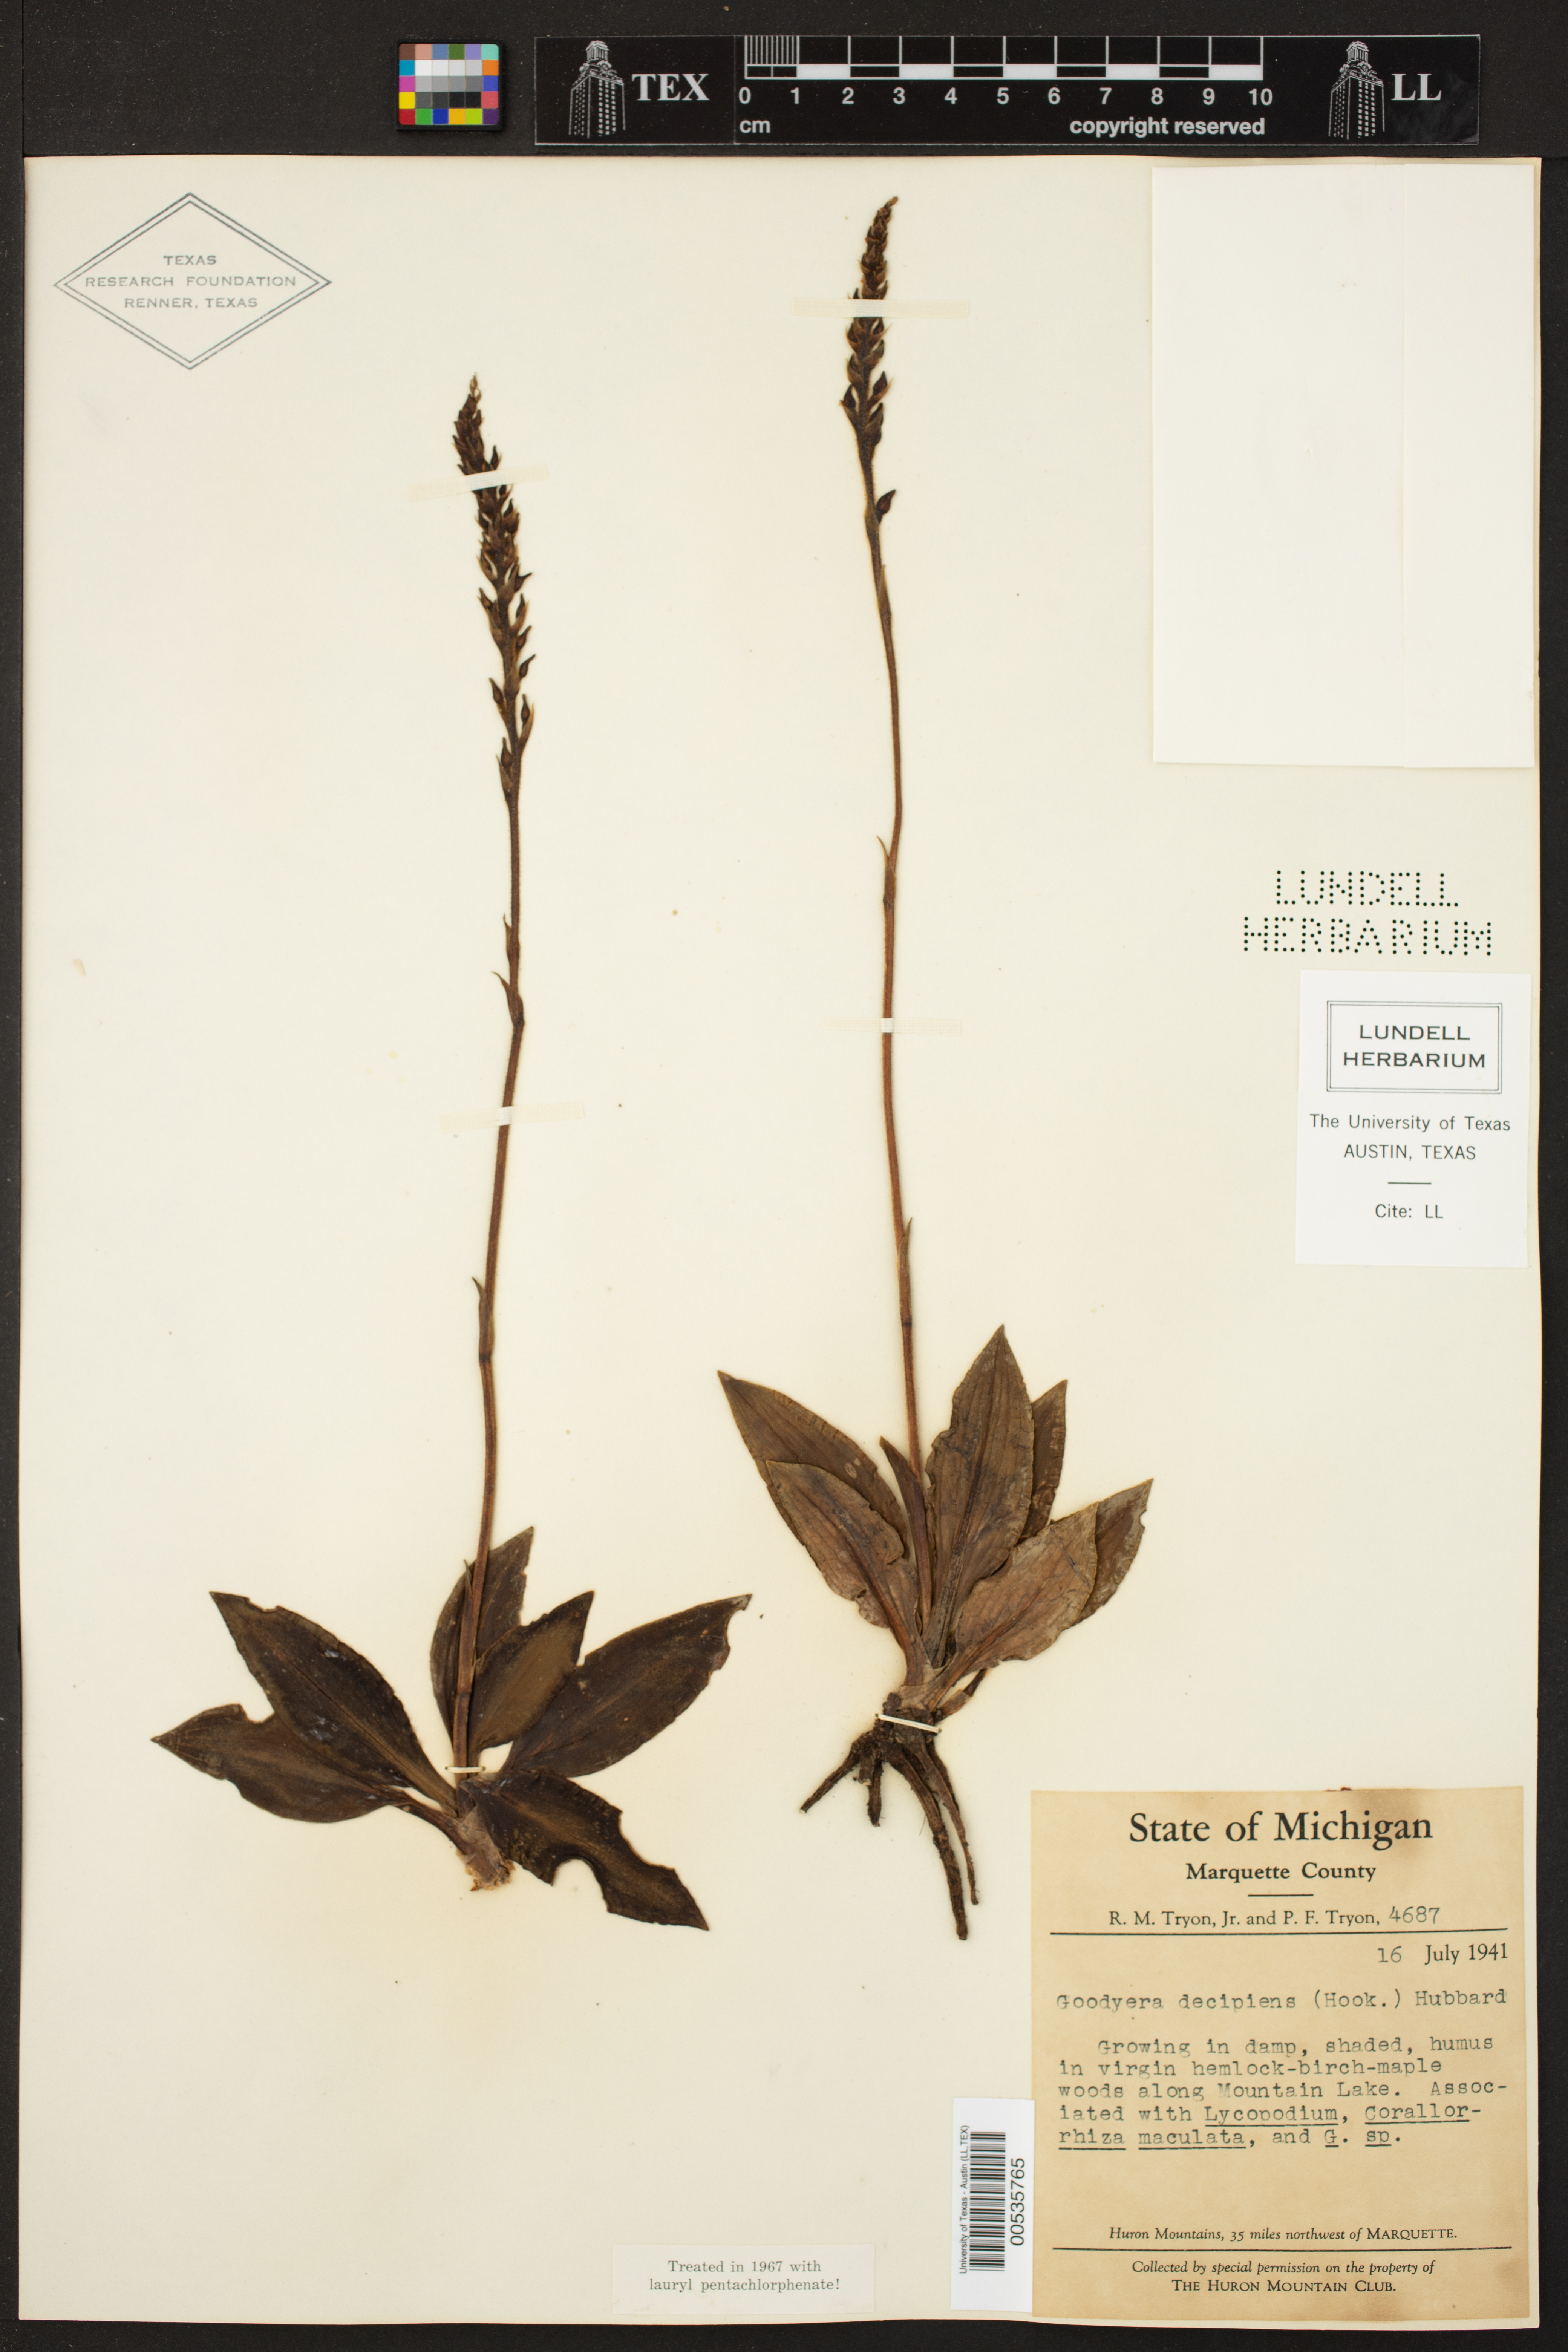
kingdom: Plantae
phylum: Tracheophyta
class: Liliopsida
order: Asparagales
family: Orchidaceae
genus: Goodyera
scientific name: Goodyera oblongifolia
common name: Giant rattlesnake-plantain
